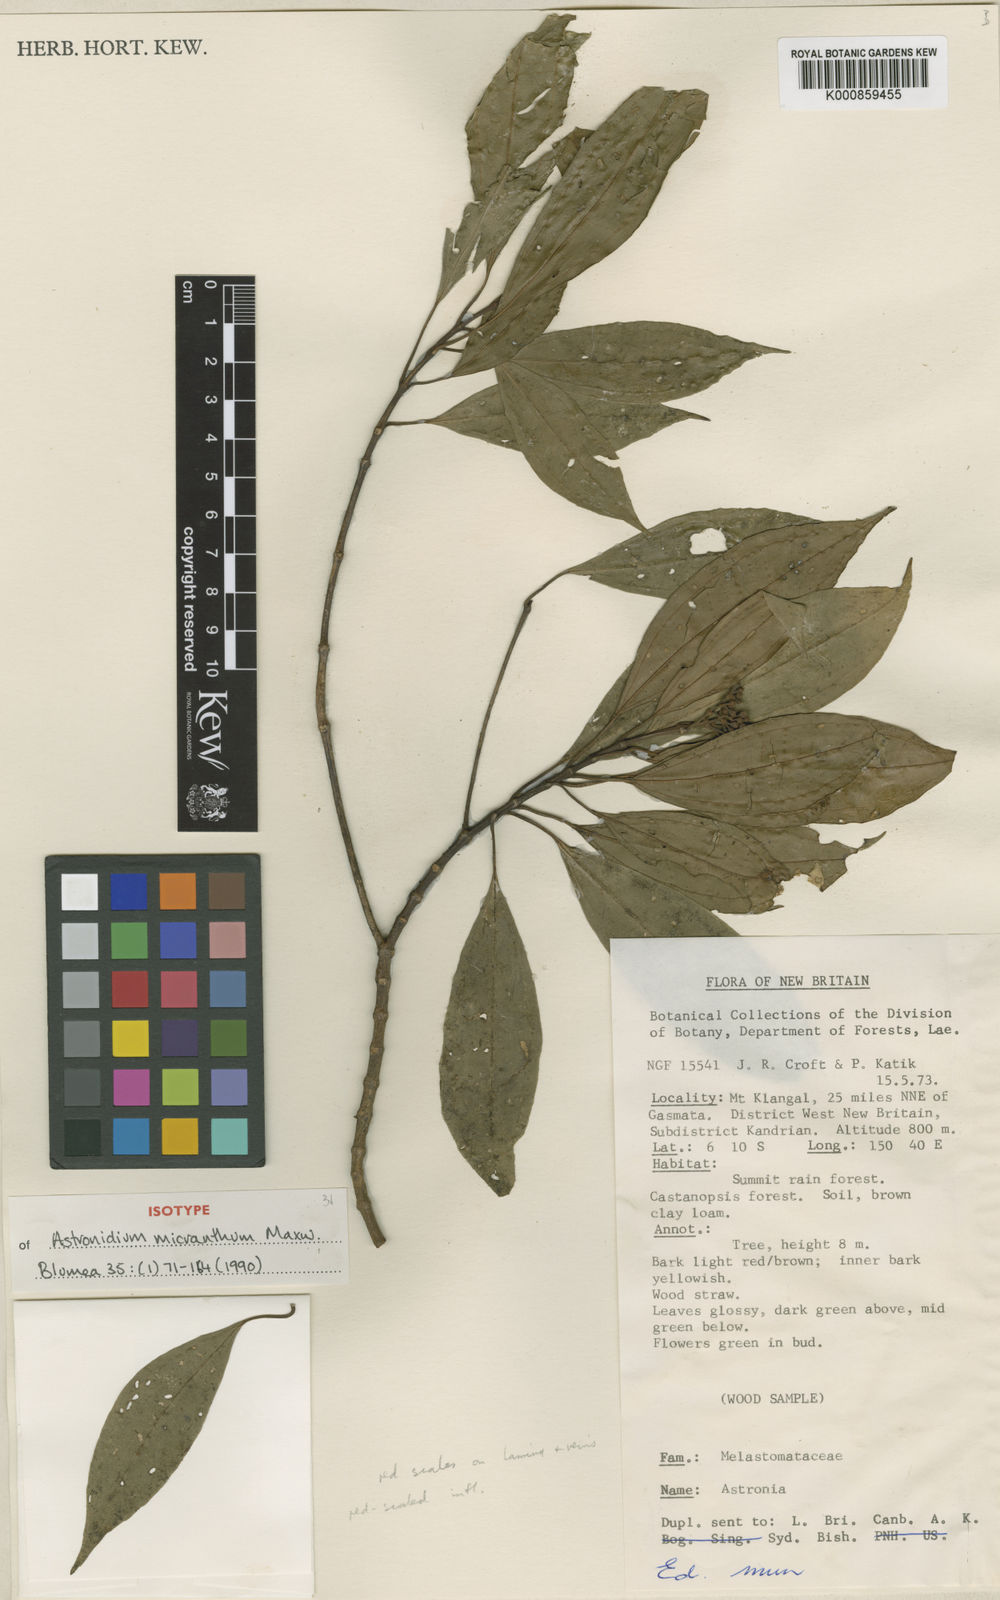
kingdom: Plantae
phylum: Tracheophyta
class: Magnoliopsida
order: Myrtales
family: Melastomataceae
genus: Astronidium
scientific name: Astronidium micranthum
